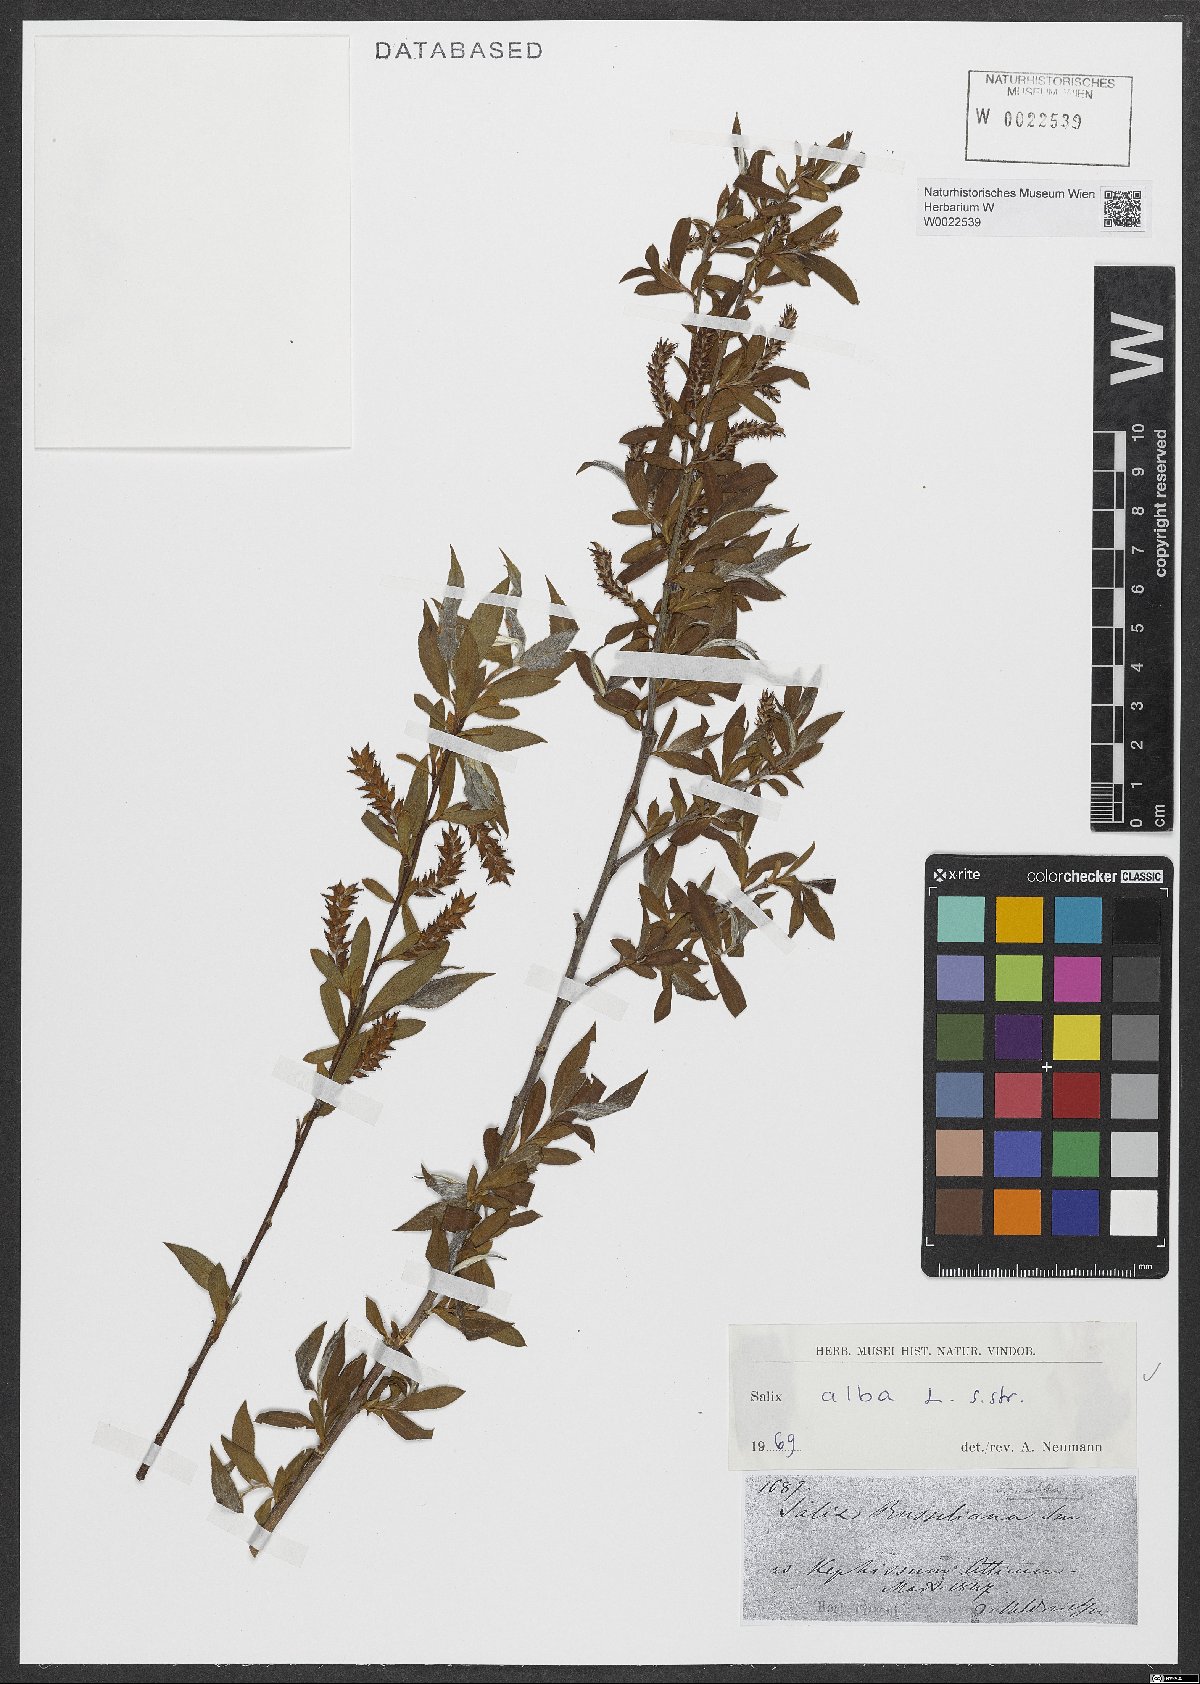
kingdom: Plantae
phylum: Tracheophyta
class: Magnoliopsida
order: Malpighiales
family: Salicaceae
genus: Salix
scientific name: Salix alba
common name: White willow
